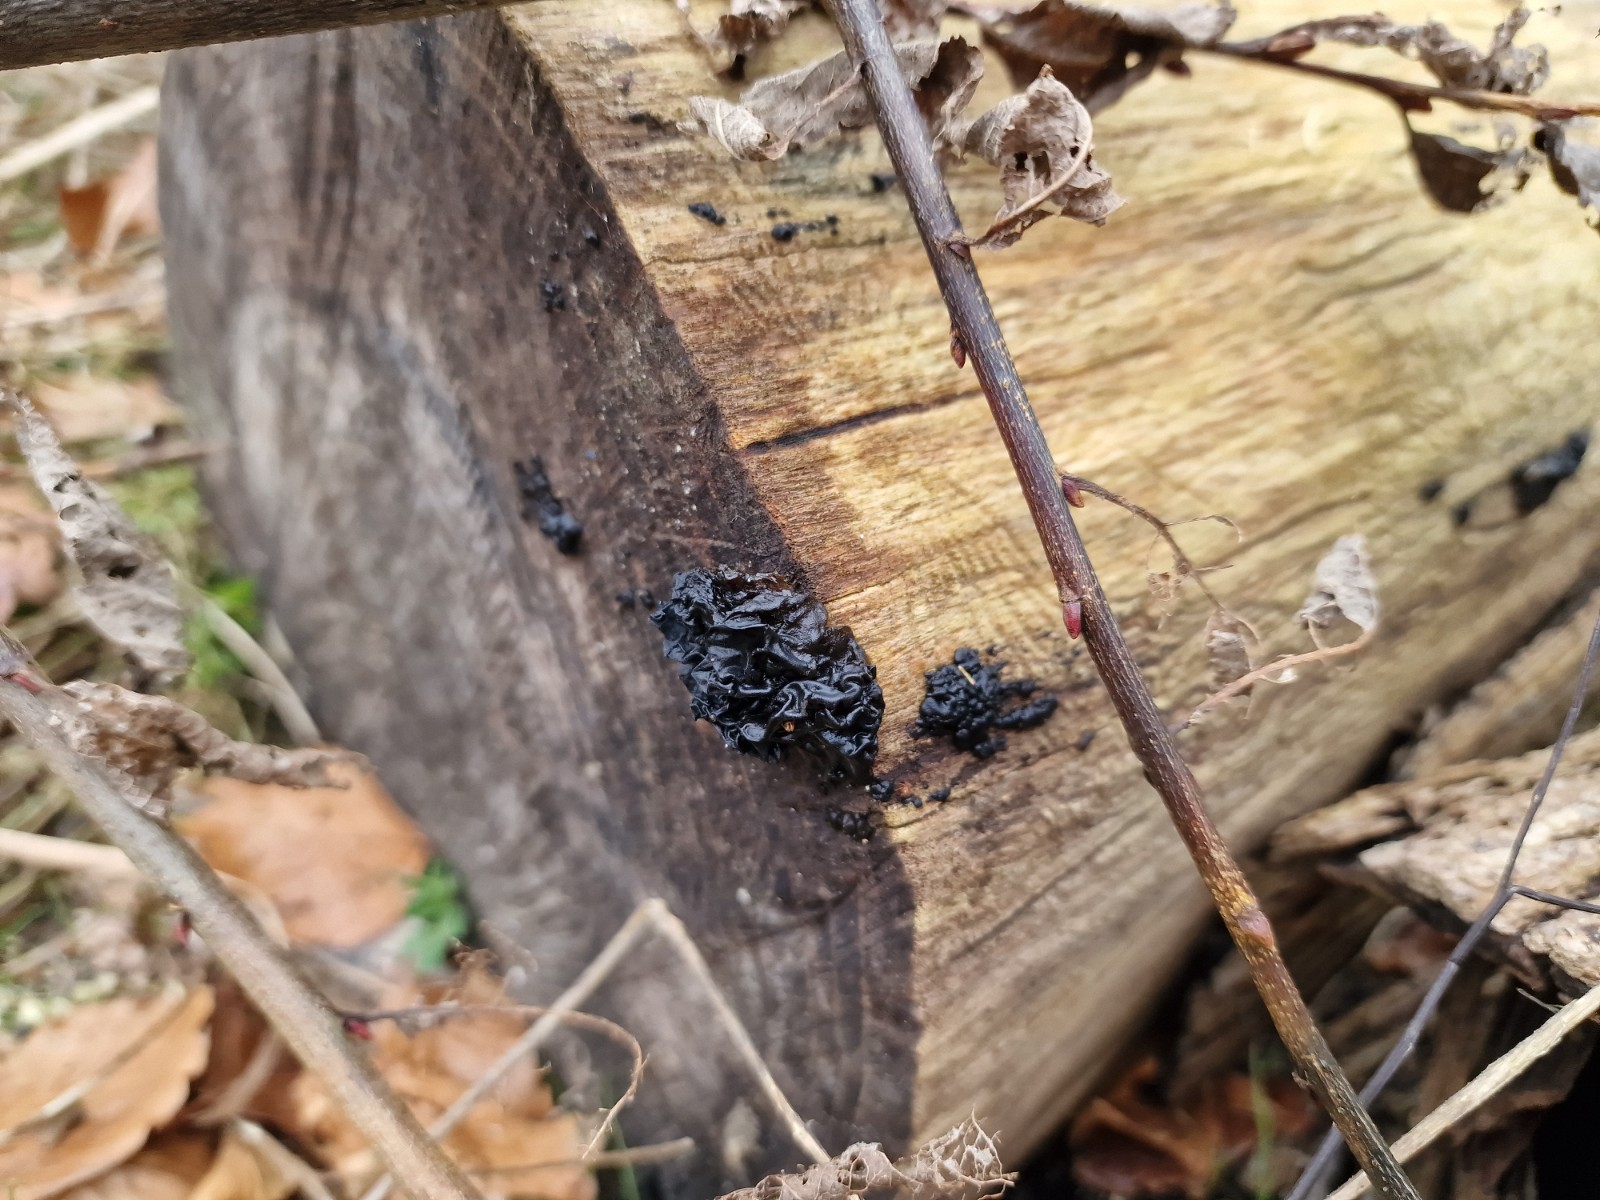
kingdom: Fungi
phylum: Basidiomycota
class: Agaricomycetes
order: Auriculariales
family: Auriculariaceae
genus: Exidia
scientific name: Exidia nigricans
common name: almindelig bævretop
